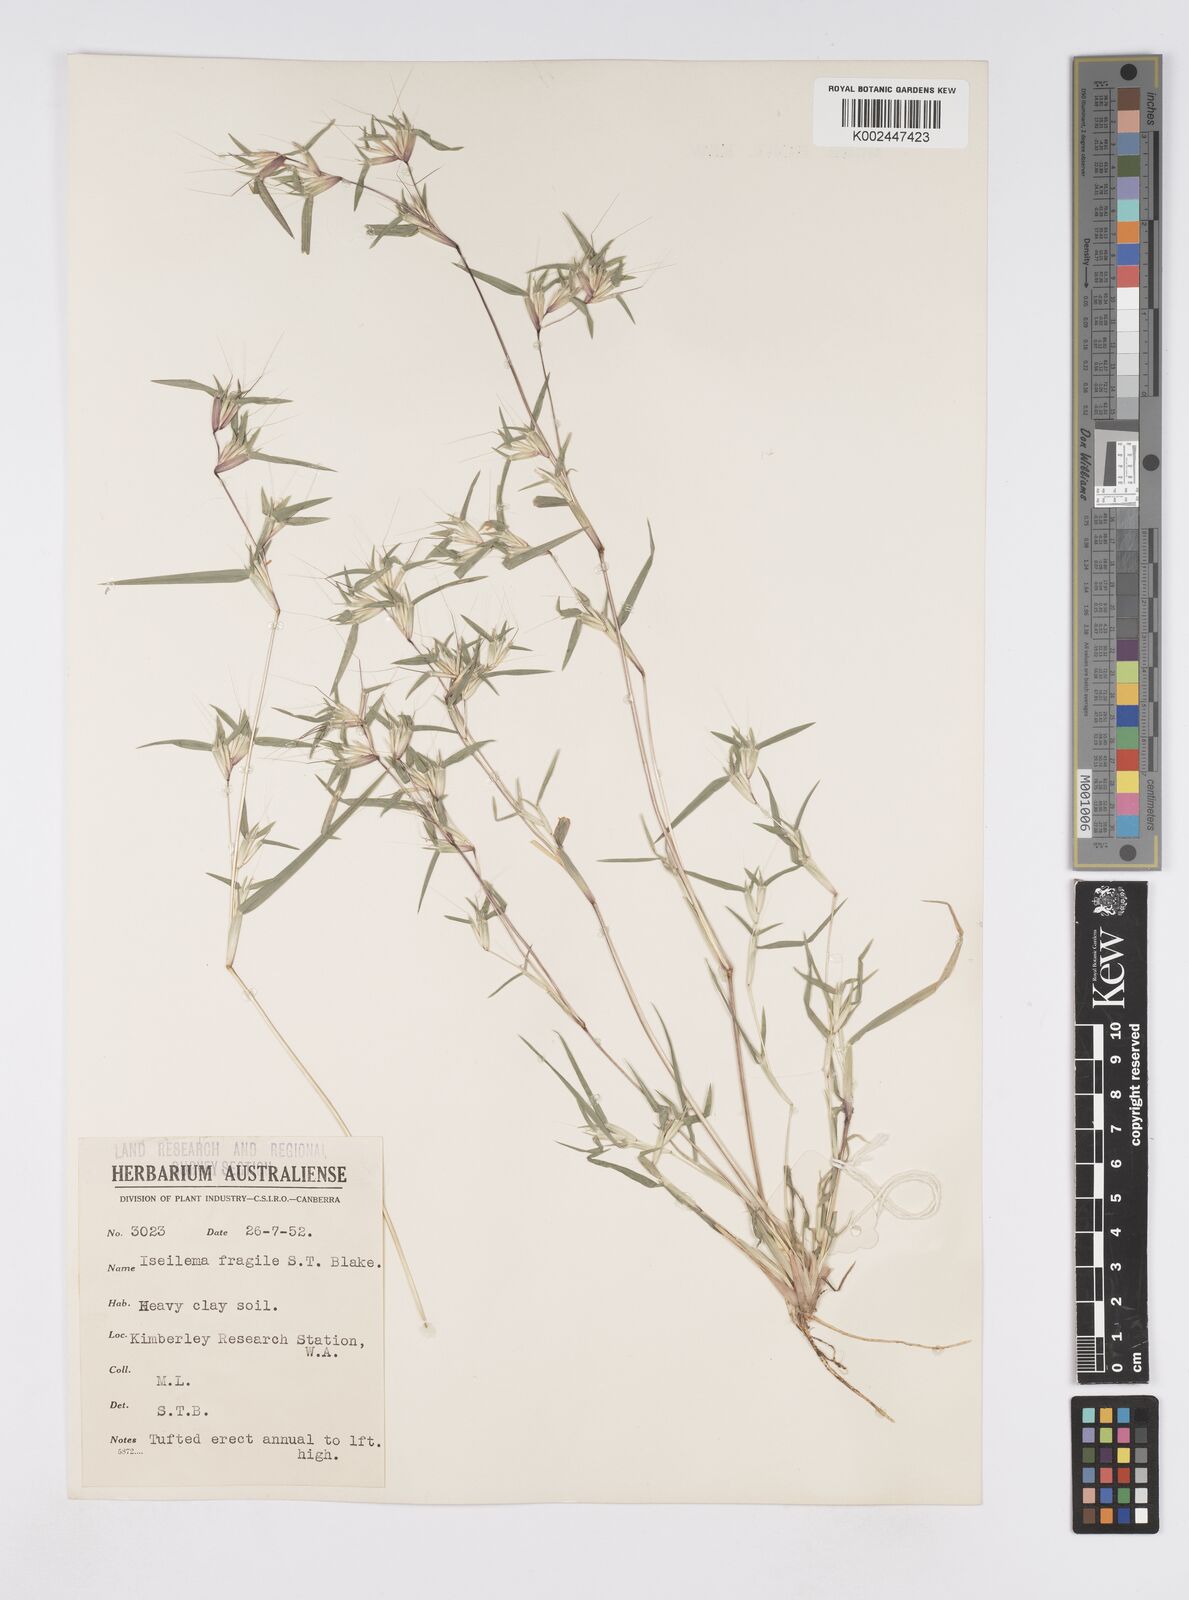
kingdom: Plantae
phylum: Tracheophyta
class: Liliopsida
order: Poales
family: Poaceae
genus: Iseilema
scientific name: Iseilema fragile
